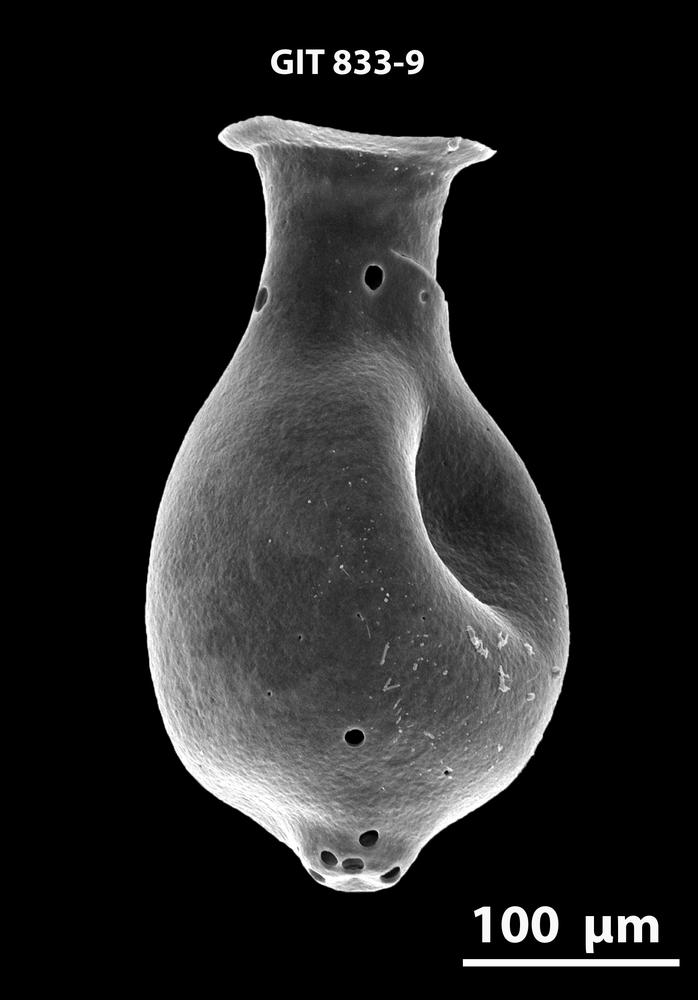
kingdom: Animalia
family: Lagenochitinidae
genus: Lagenochitina
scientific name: Lagenochitina
